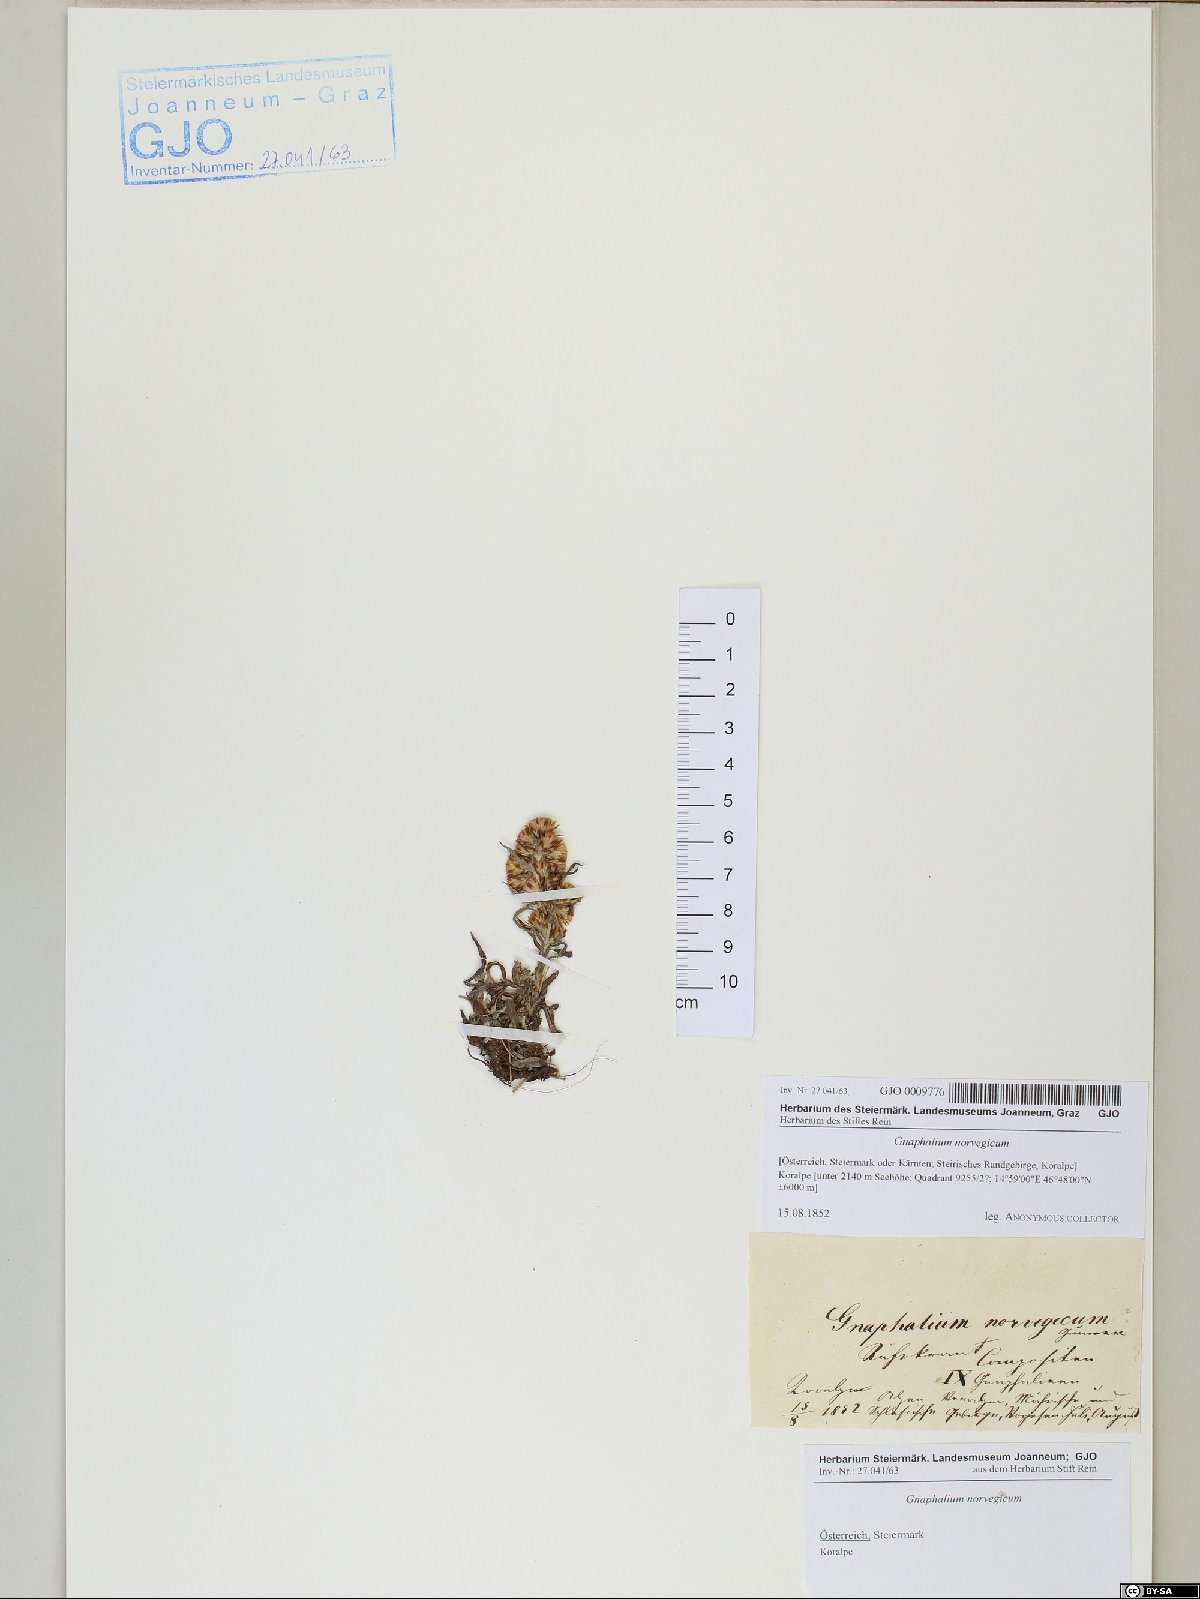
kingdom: Plantae
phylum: Tracheophyta
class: Magnoliopsida
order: Asterales
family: Asteraceae
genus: Omalotheca
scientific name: Omalotheca norvegica
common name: Norwegian arctic-cudweed
